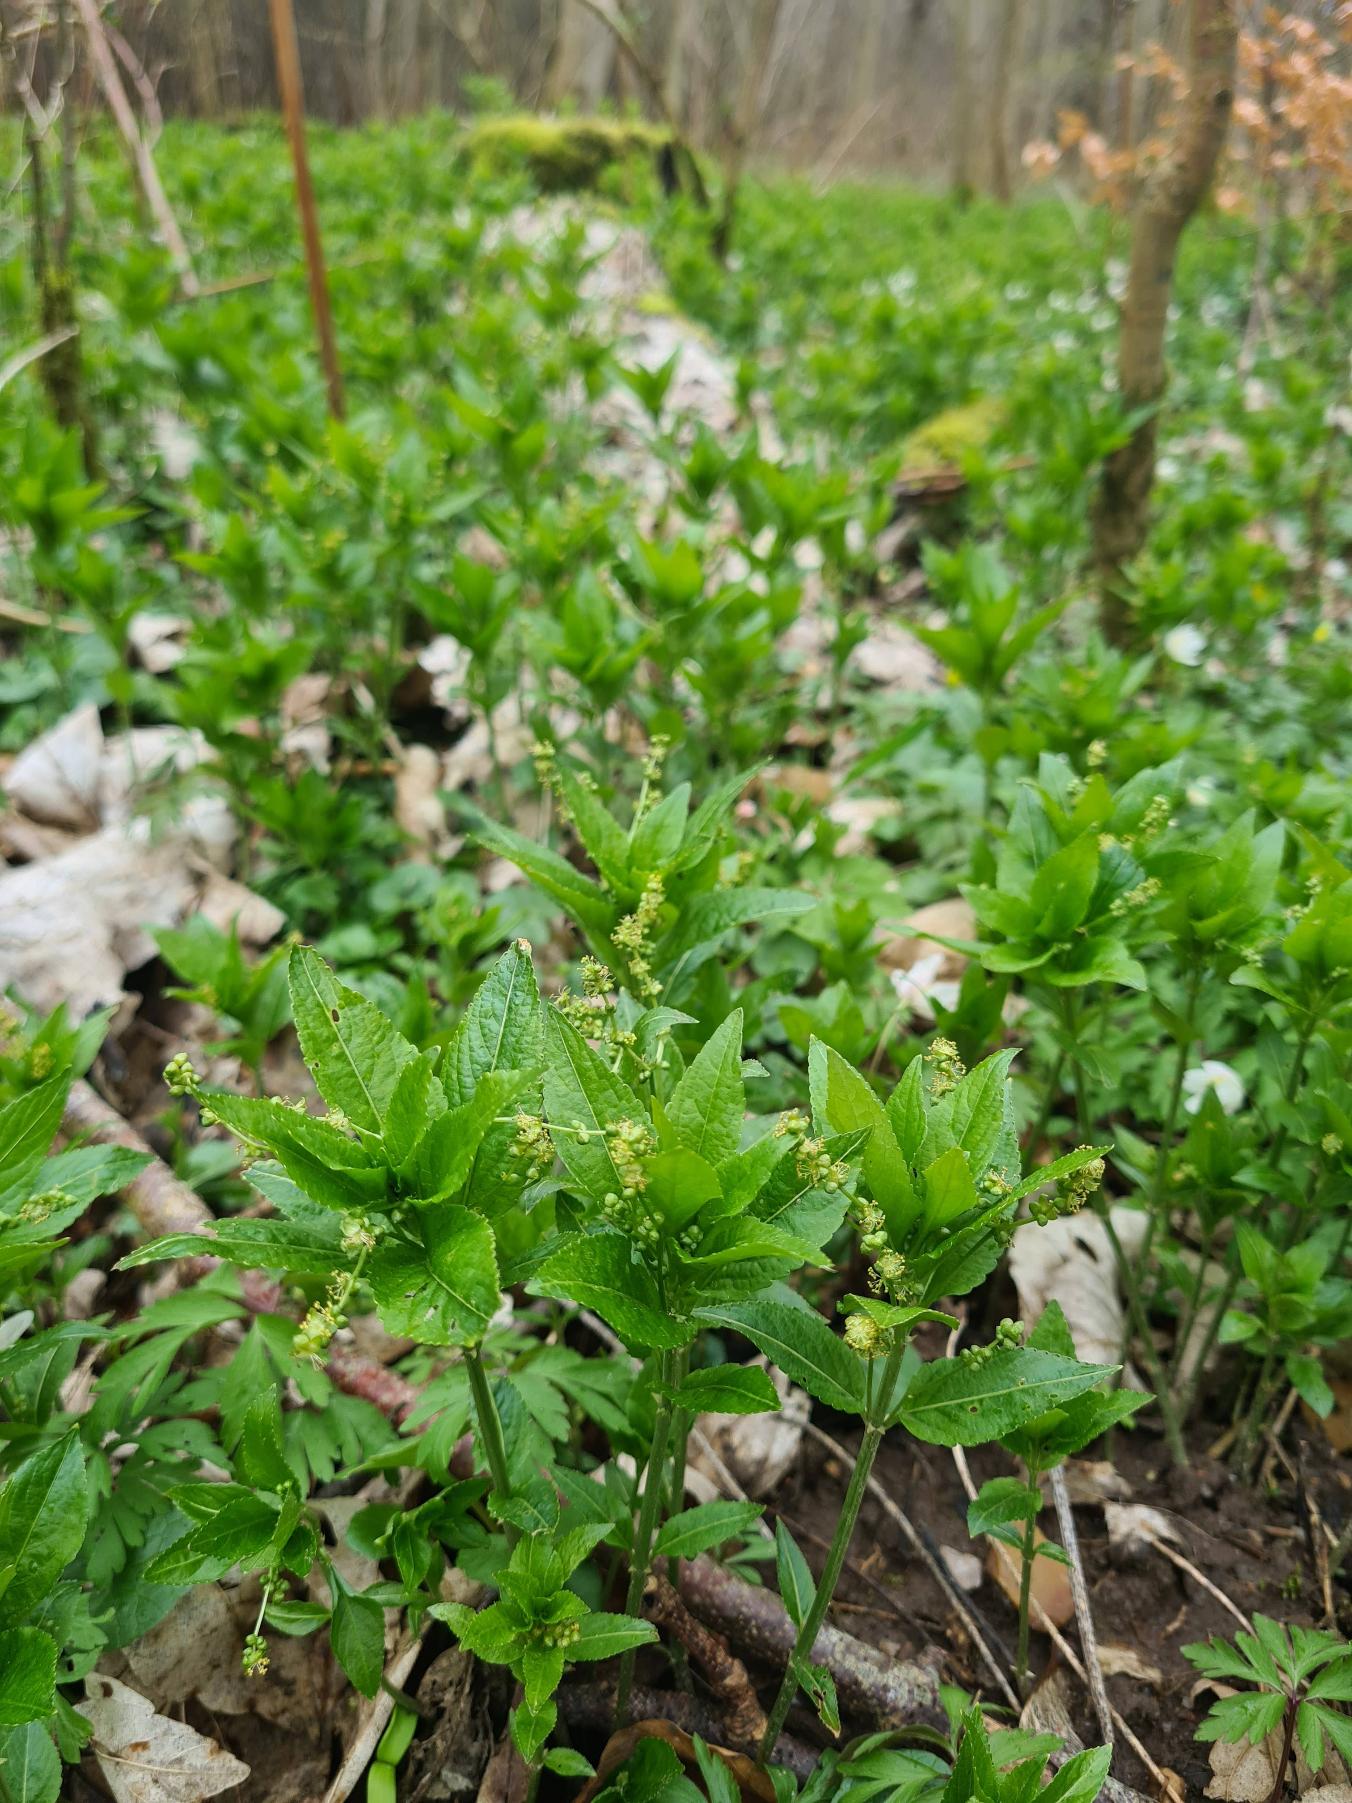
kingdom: Plantae
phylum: Tracheophyta
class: Magnoliopsida
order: Malpighiales
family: Euphorbiaceae
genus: Mercurialis
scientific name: Mercurialis perennis
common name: Almindelig bingelurt
